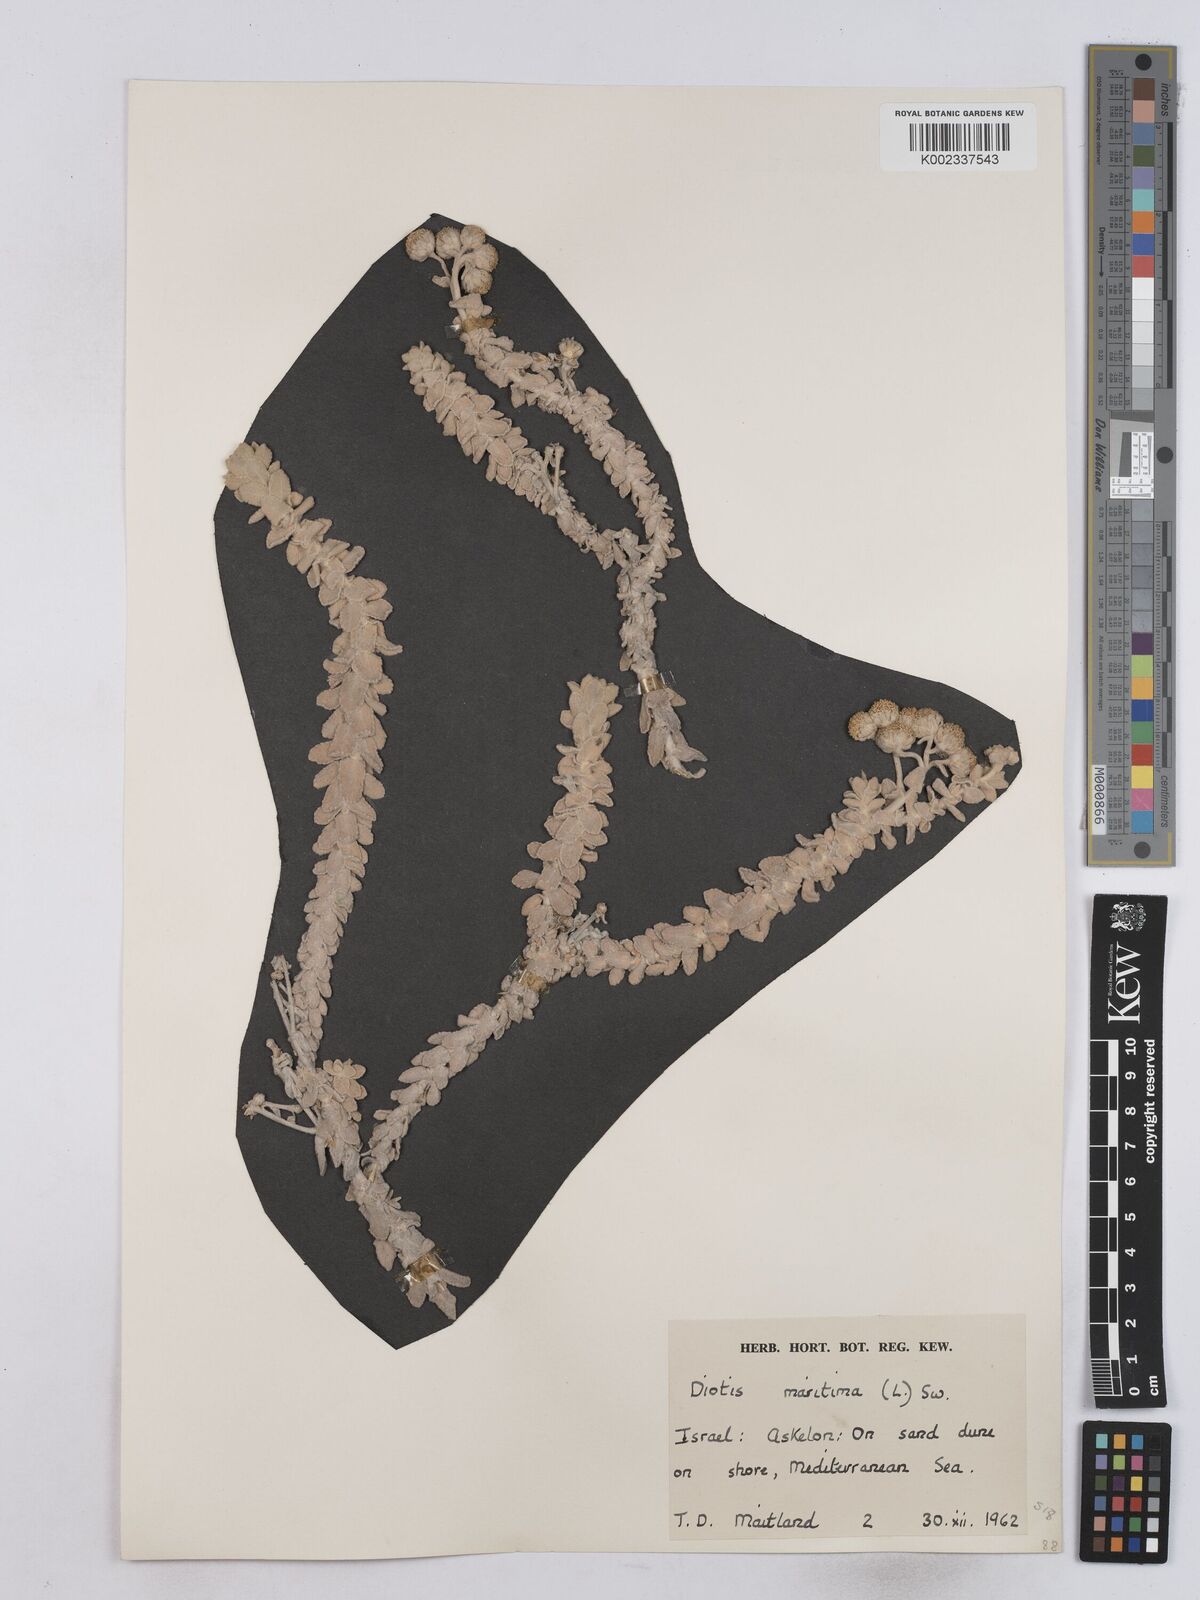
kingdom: Plantae
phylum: Tracheophyta
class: Magnoliopsida
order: Asterales
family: Asteraceae
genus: Achillea
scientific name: Achillea maritima
